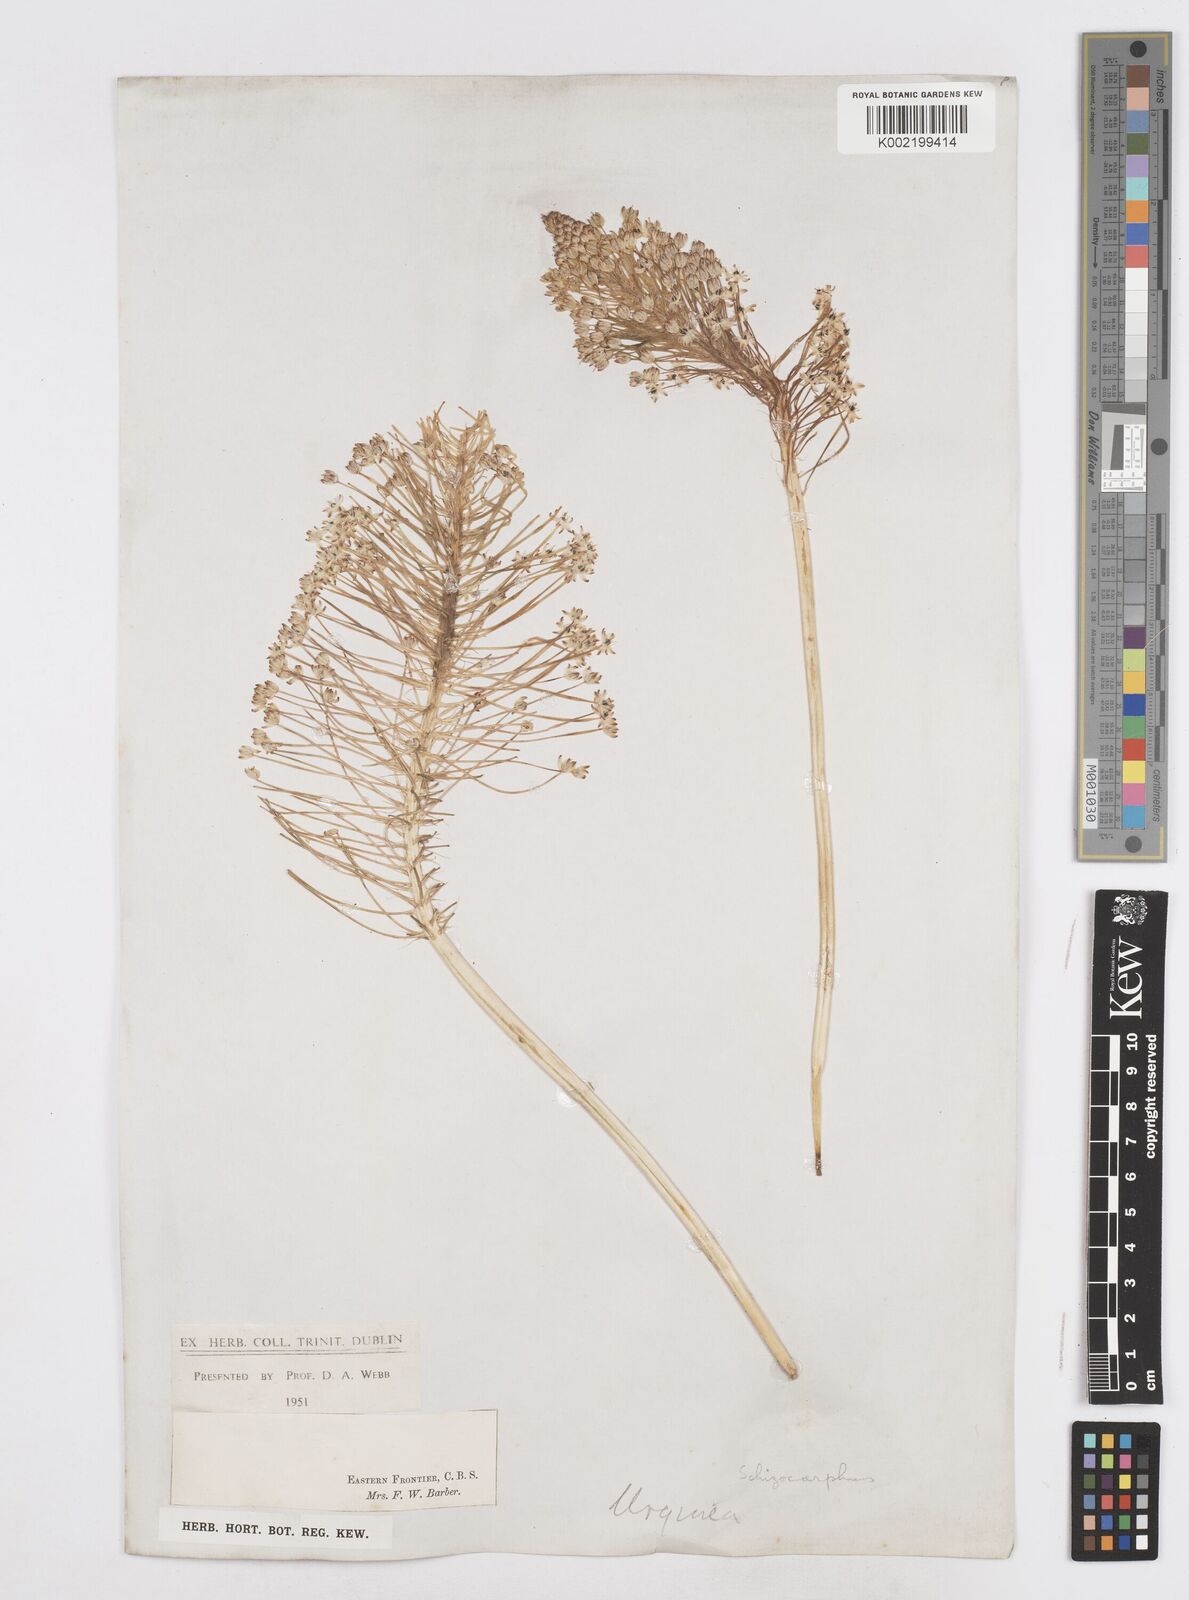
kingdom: Plantae
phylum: Tracheophyta
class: Liliopsida
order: Asparagales
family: Asparagaceae
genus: Schizocarphus
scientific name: Schizocarphus nervosus
